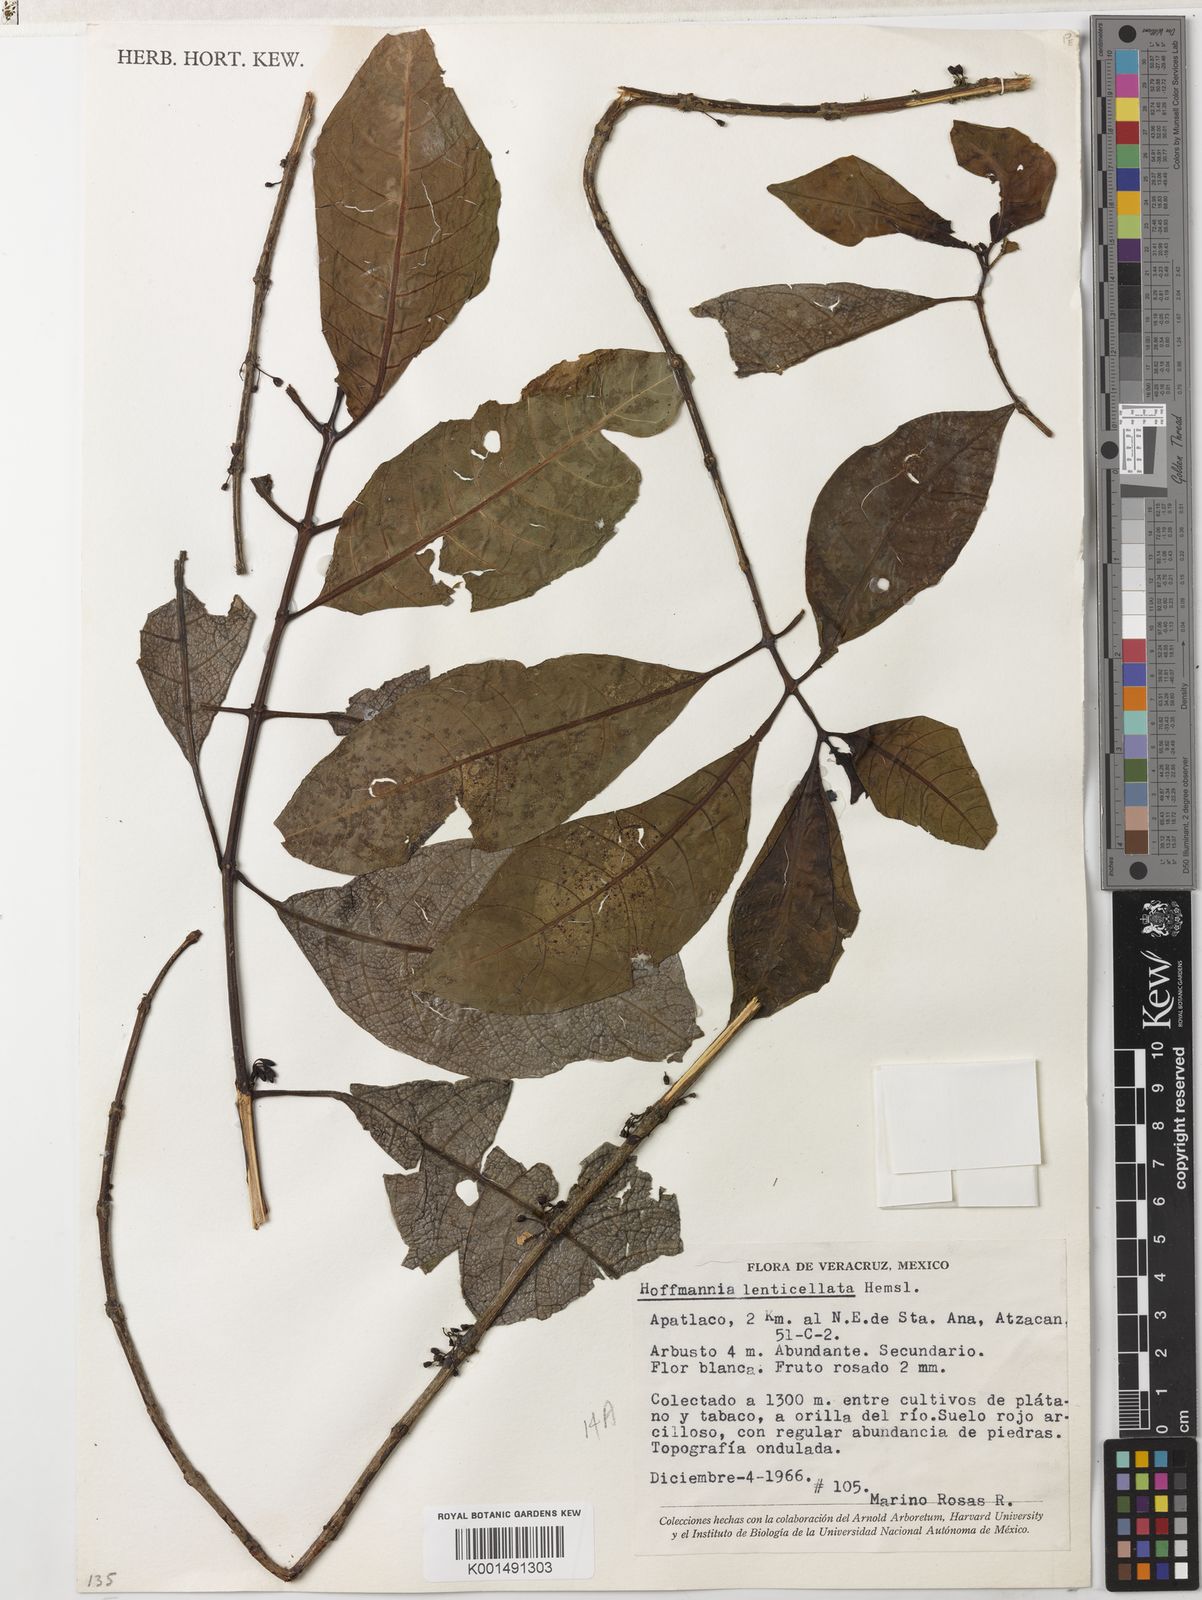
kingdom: Plantae
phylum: Tracheophyta
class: Magnoliopsida
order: Gentianales
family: Rubiaceae
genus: Hoffmannia
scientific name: Hoffmannia nicotianifolia
